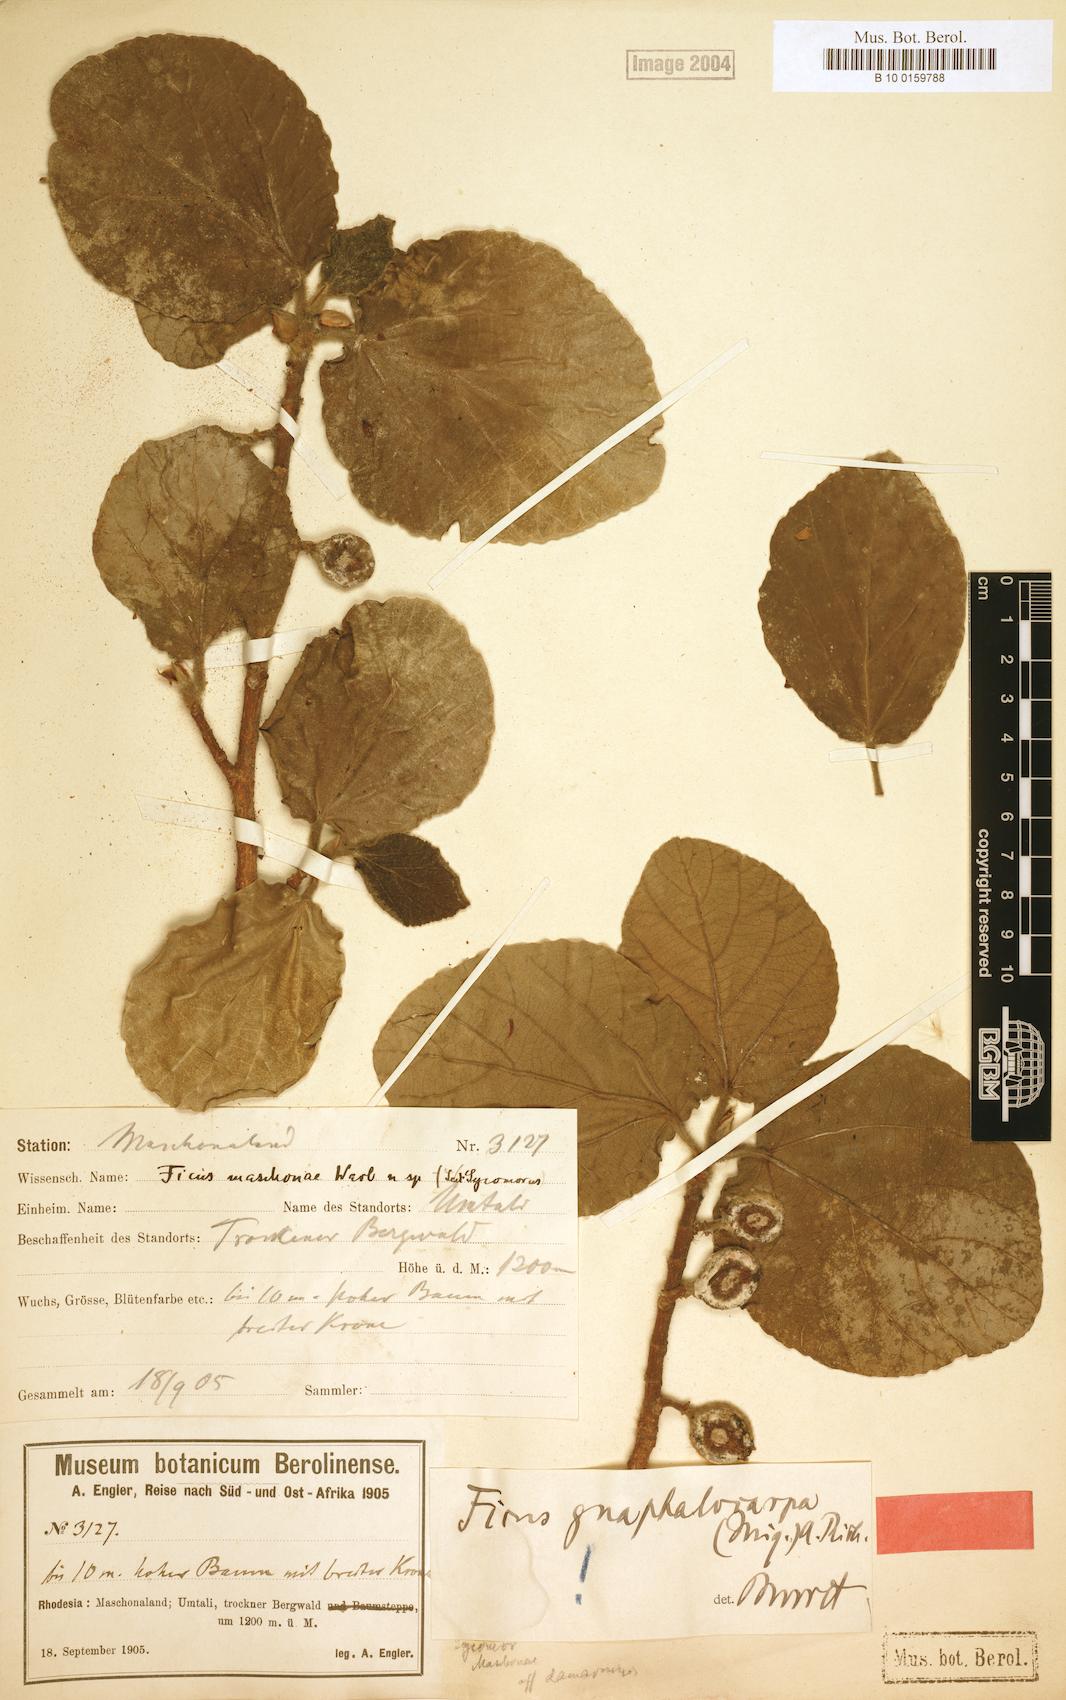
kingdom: Plantae
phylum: Tracheophyta
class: Magnoliopsida
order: Rosales
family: Moraceae
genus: Ficus
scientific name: Ficus sycomorus
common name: Sycomore
